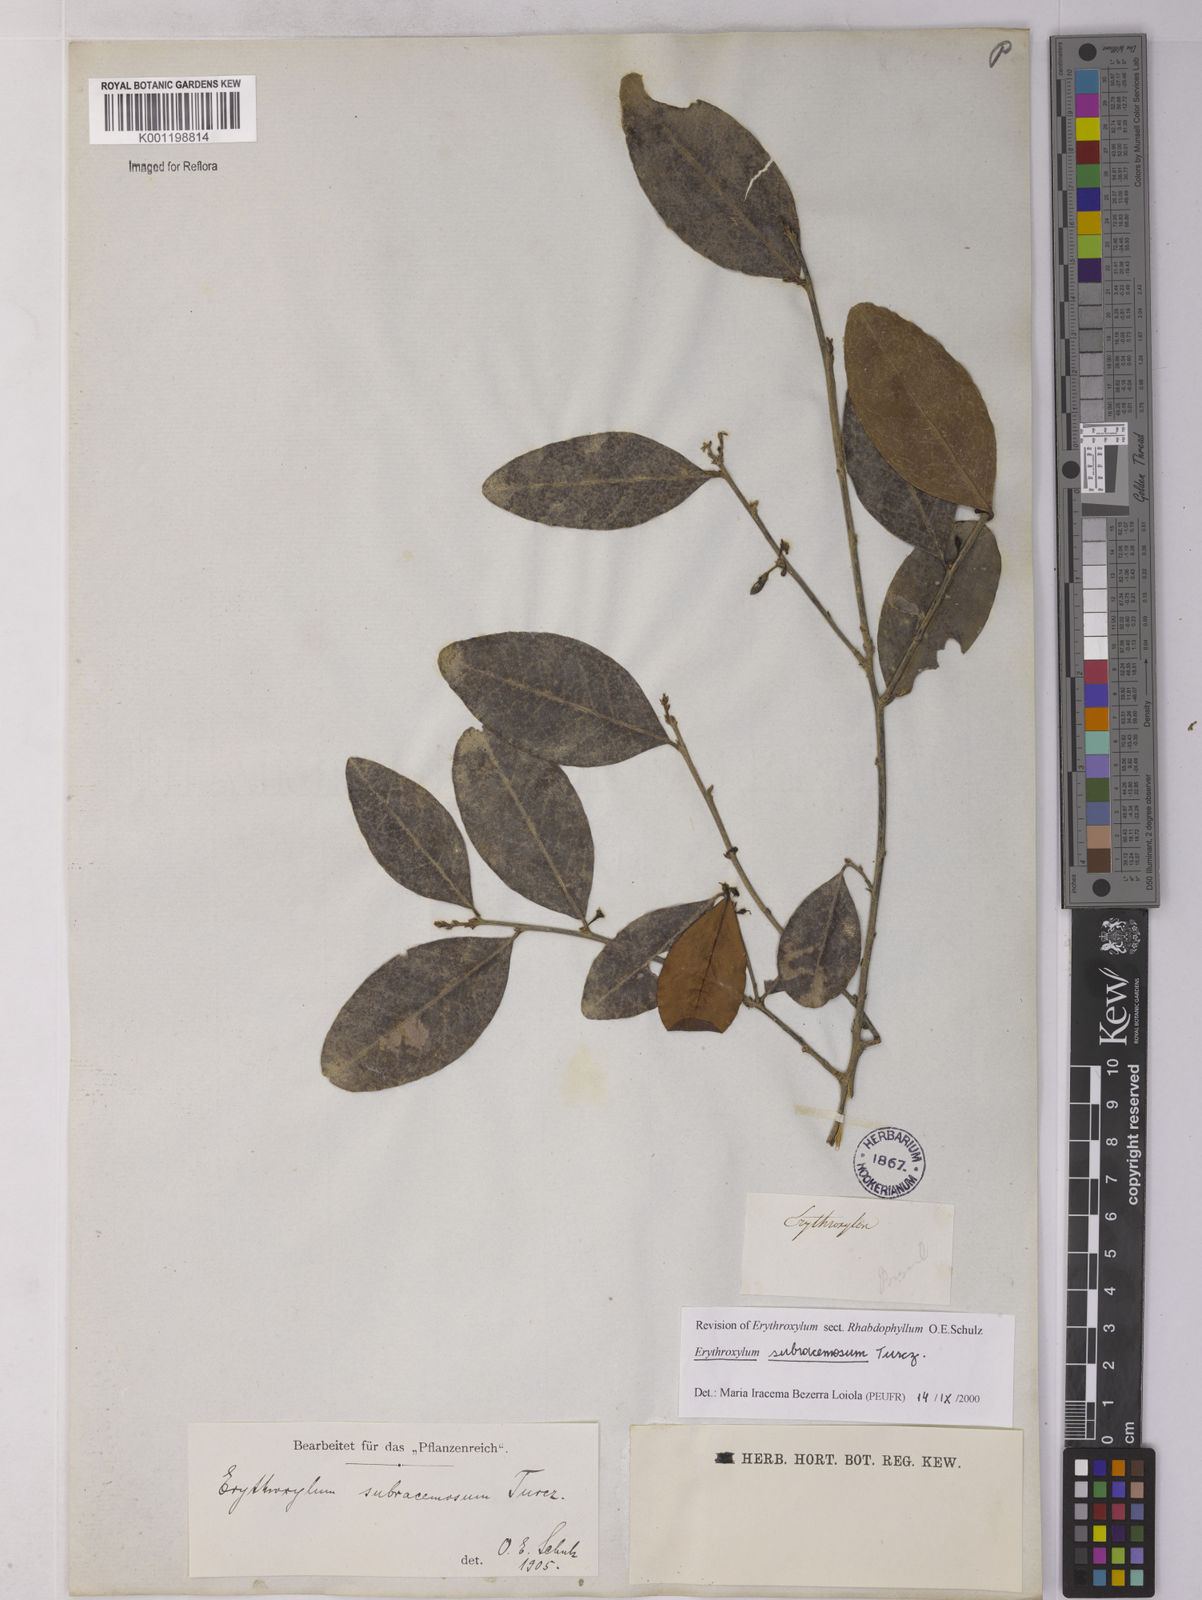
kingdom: Plantae
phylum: Tracheophyta
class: Magnoliopsida
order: Malpighiales
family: Erythroxylaceae
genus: Erythroxylum
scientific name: Erythroxylum subracemosum
